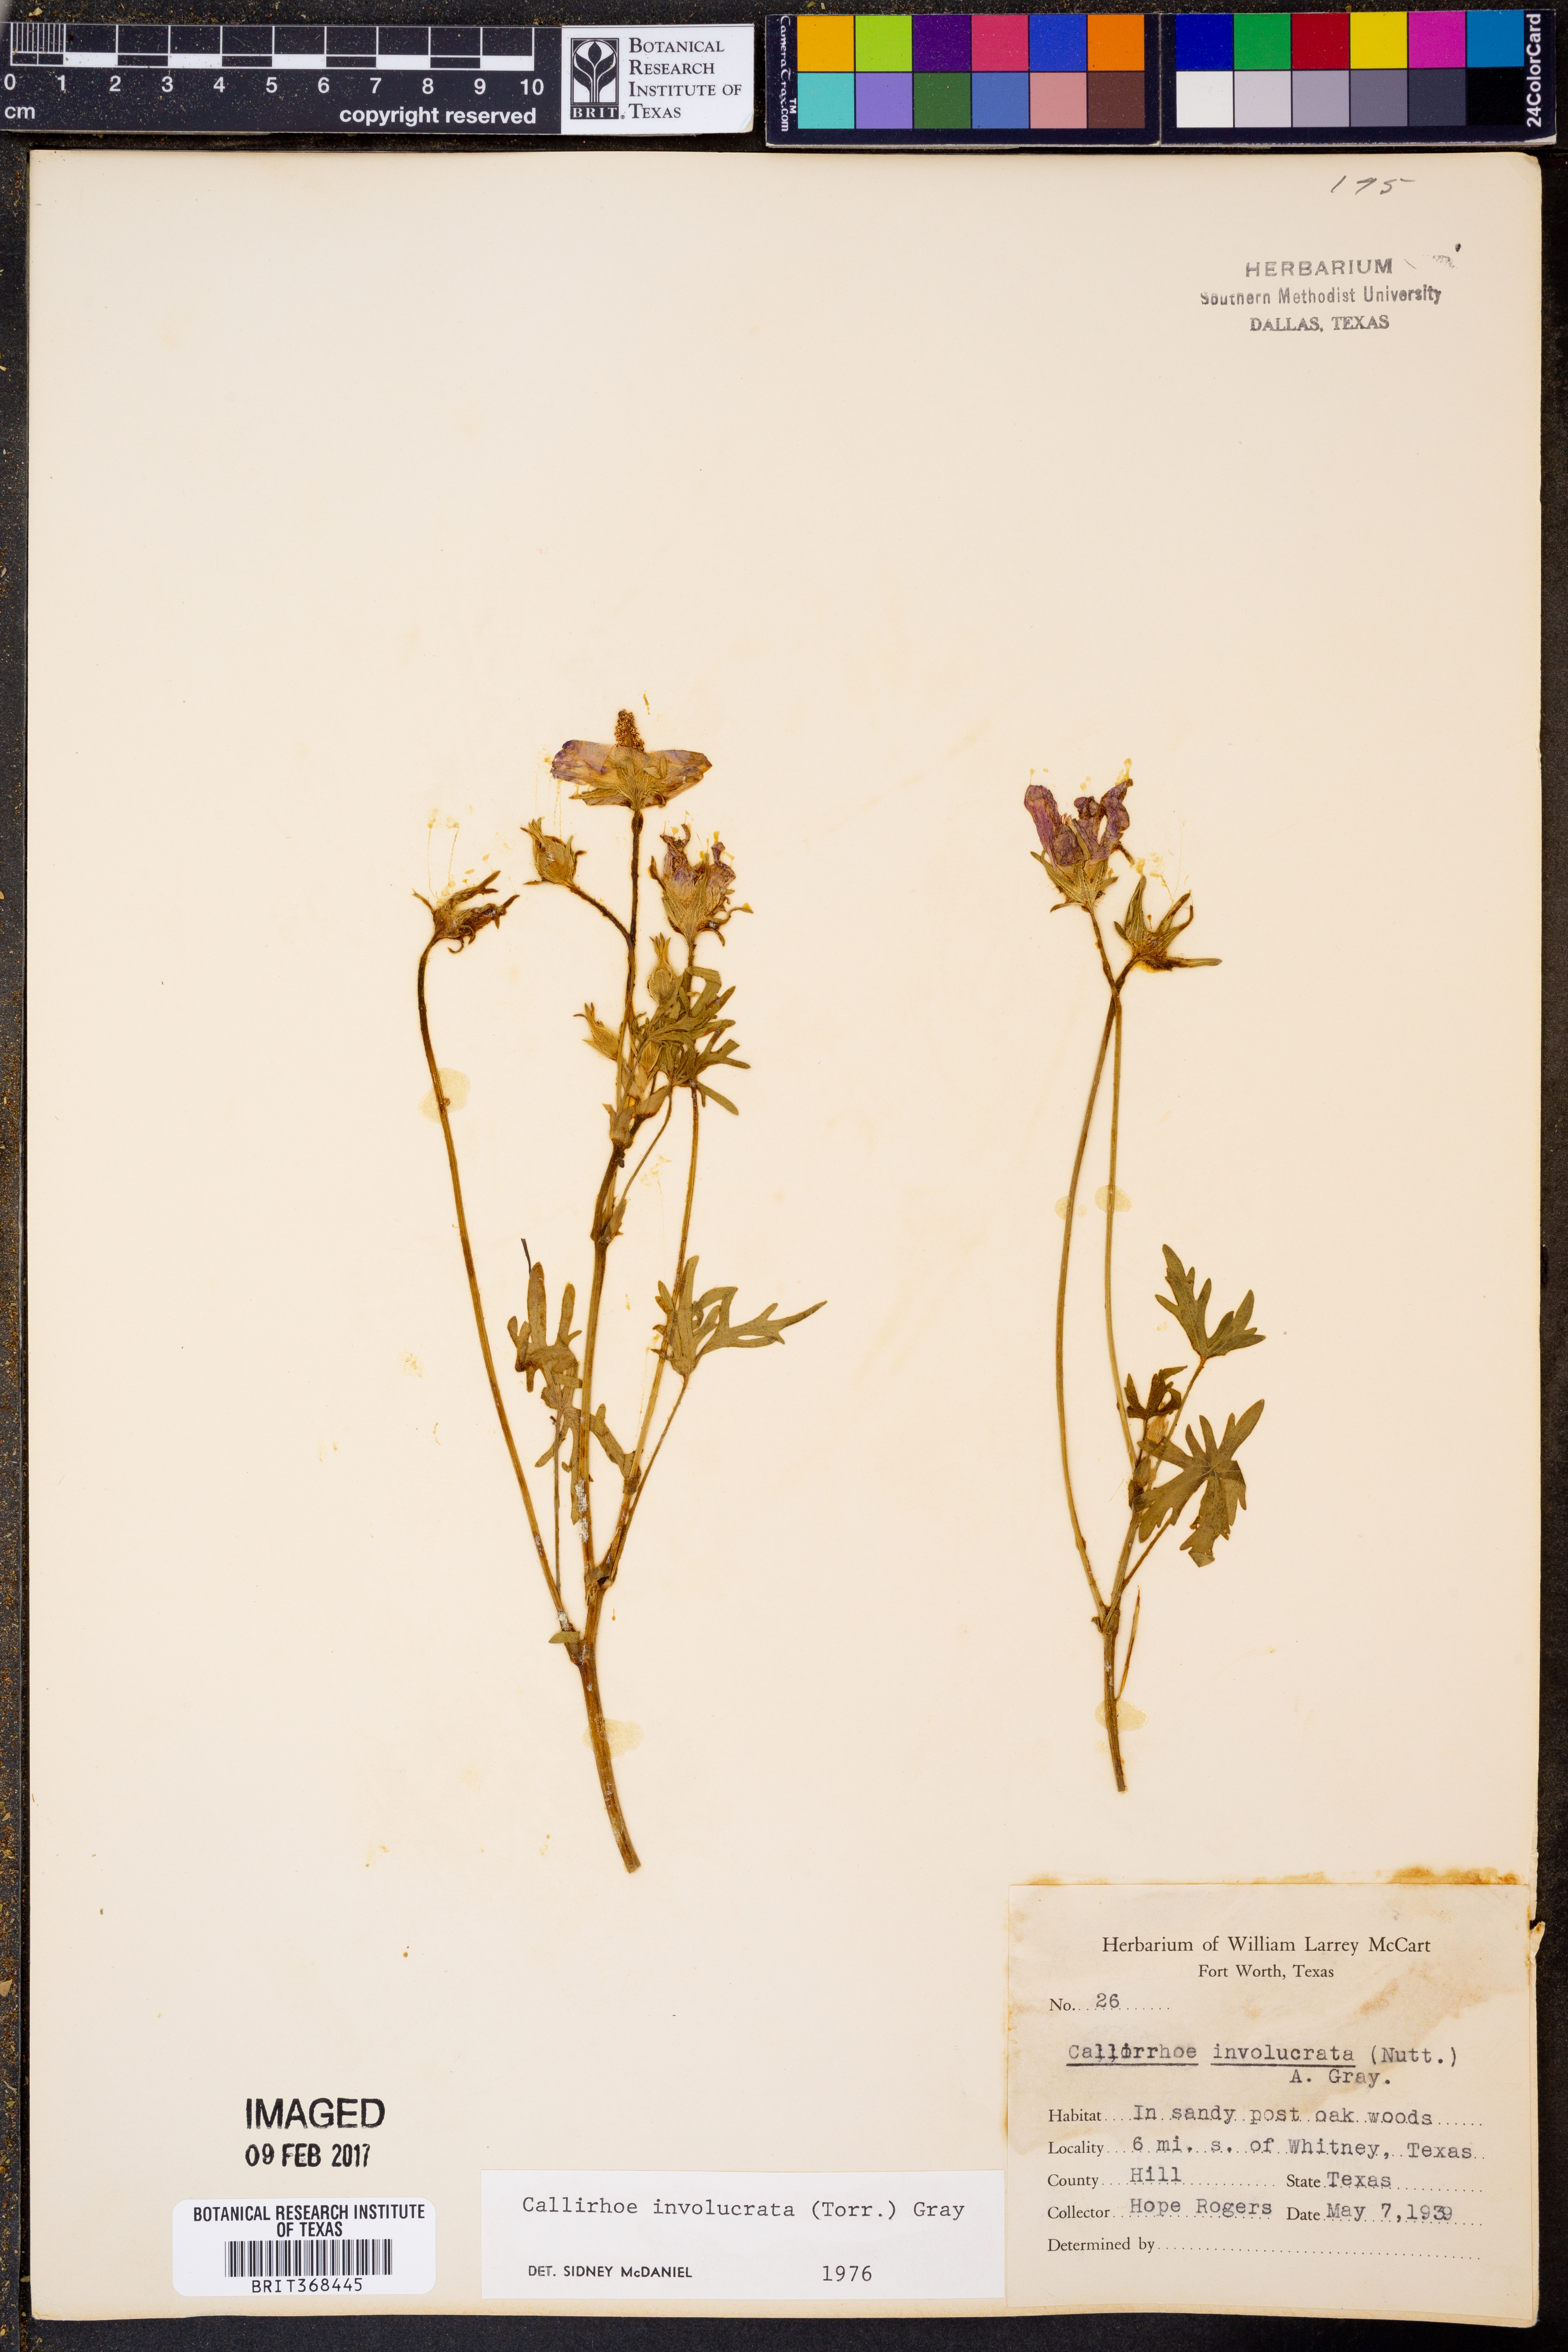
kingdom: Plantae
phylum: Tracheophyta
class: Magnoliopsida
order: Malvales
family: Malvaceae
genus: Callirhoe
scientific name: Callirhoe involucrata
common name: Purple poppy-mallow
